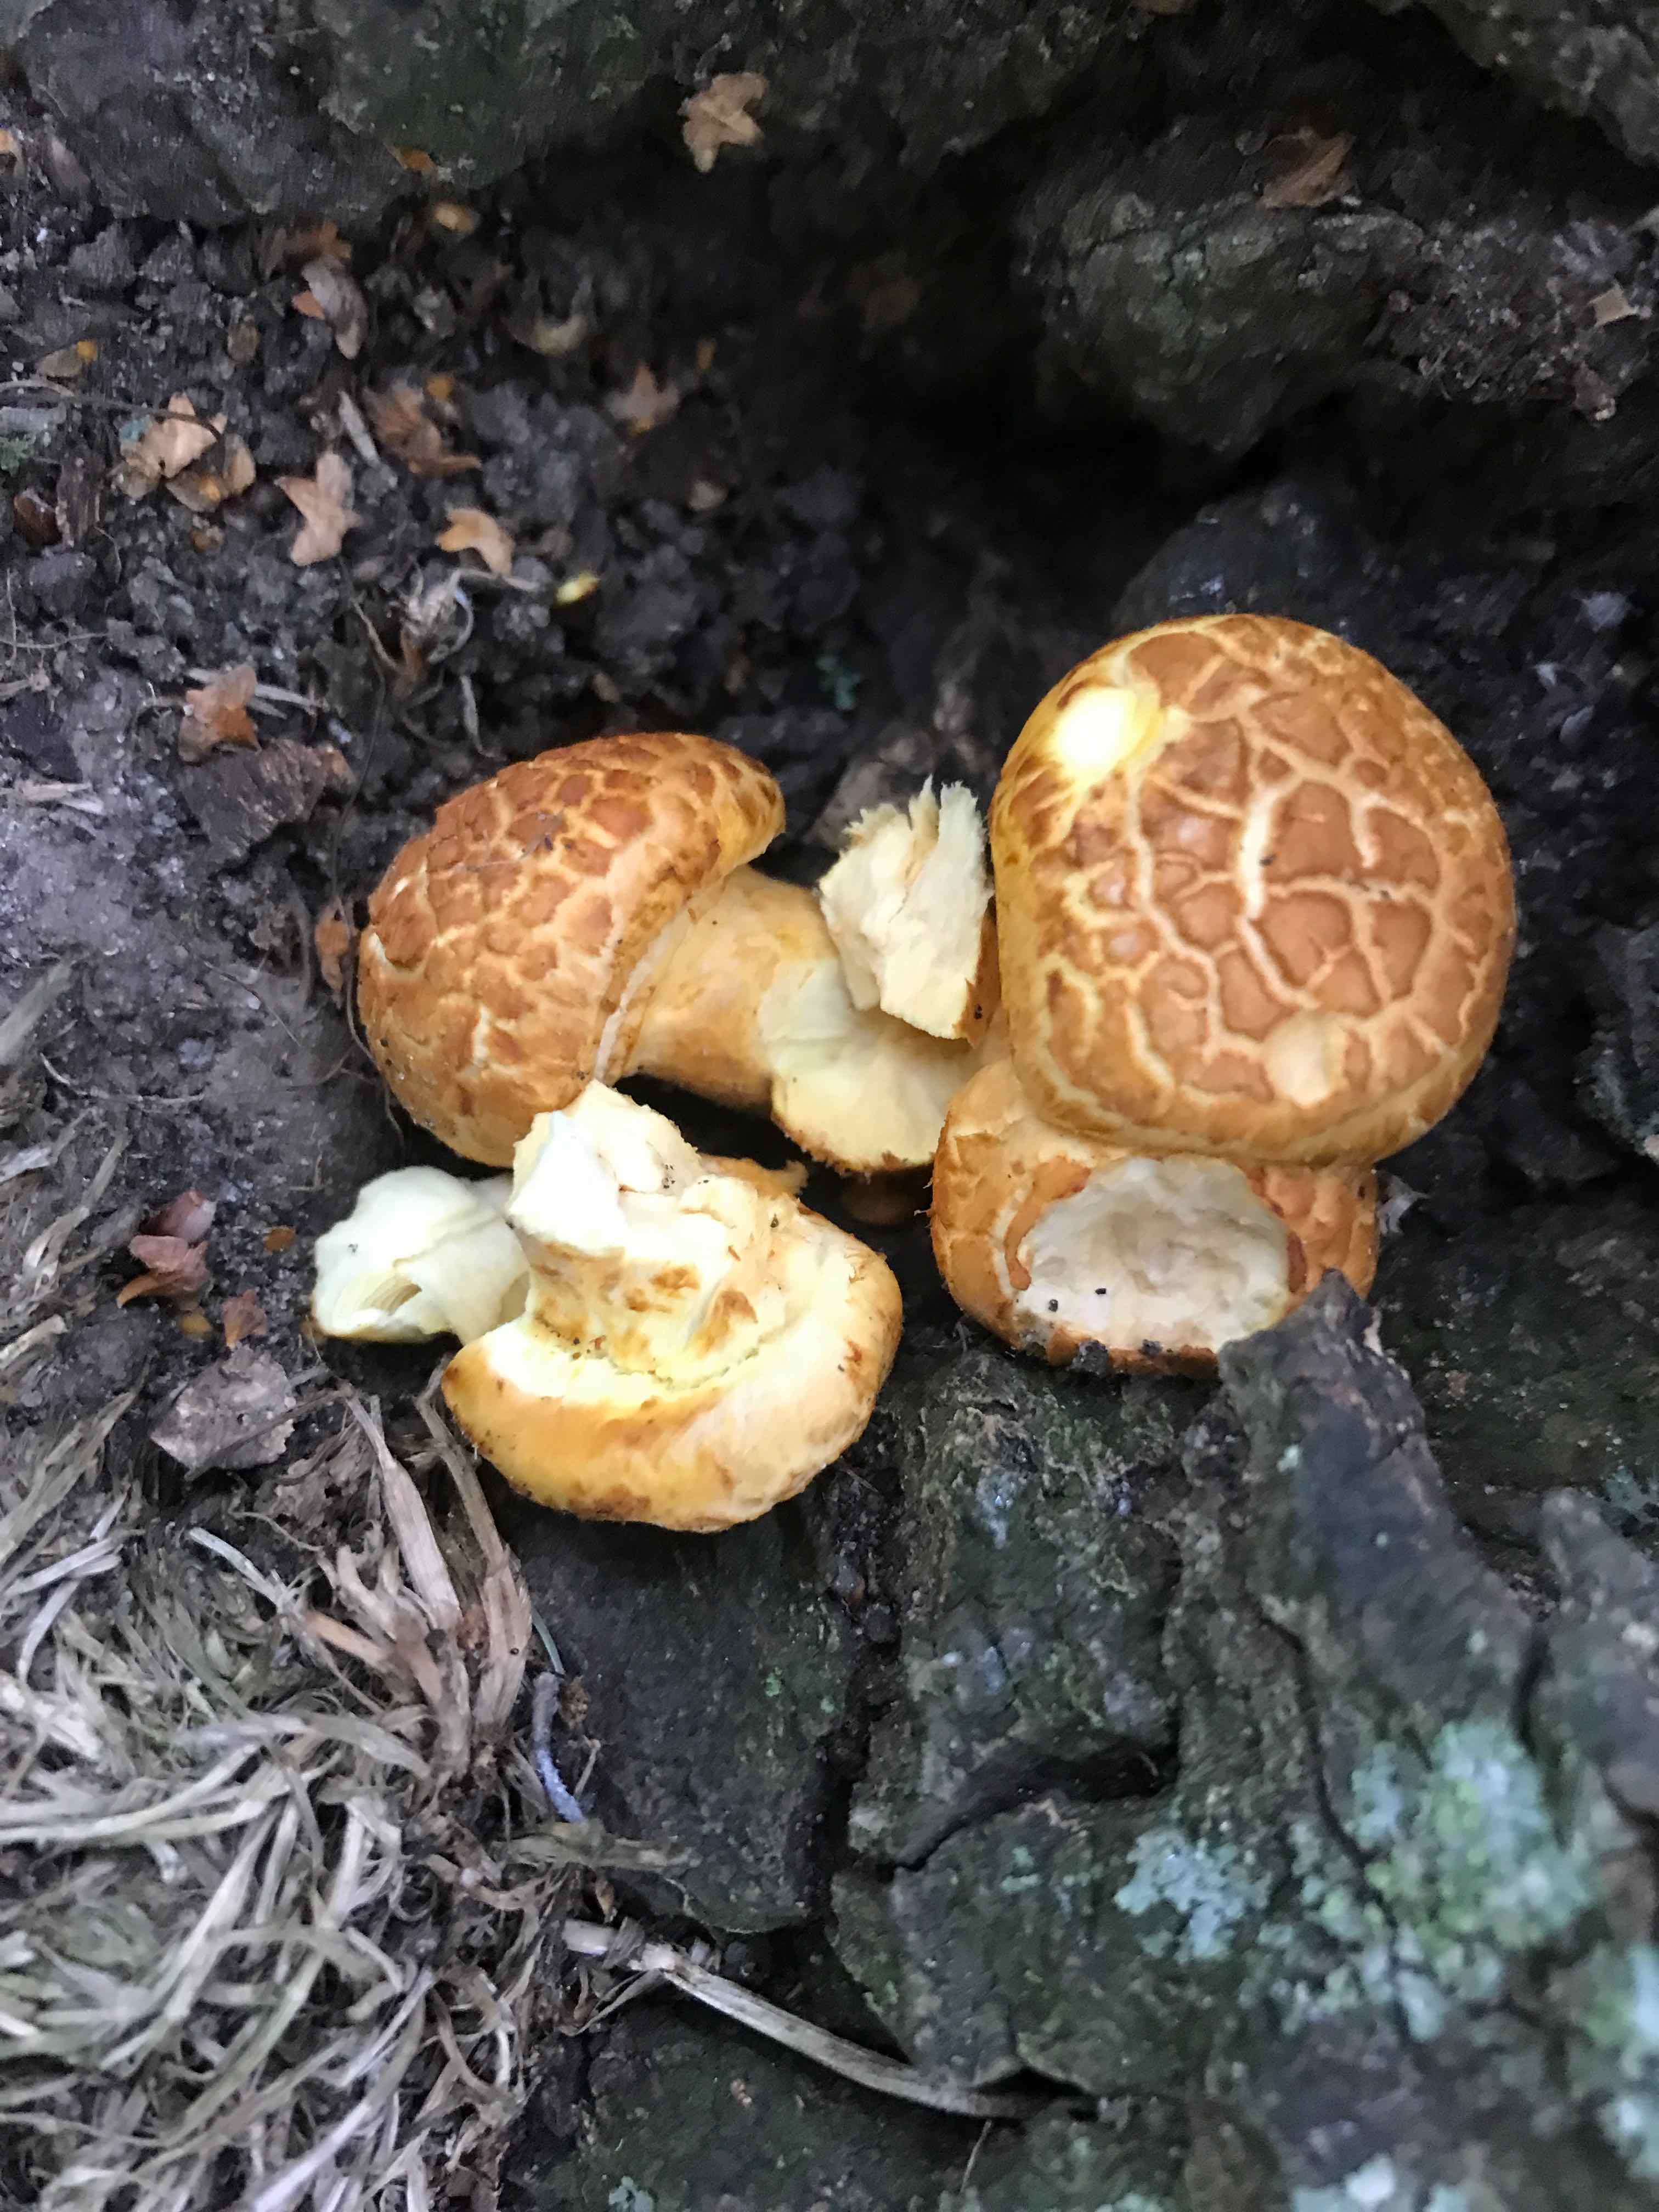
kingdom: Fungi
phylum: Basidiomycota
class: Agaricomycetes
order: Agaricales
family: Hymenogastraceae
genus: Gymnopilus
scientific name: Gymnopilus spectabilis
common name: fibret flammehat
